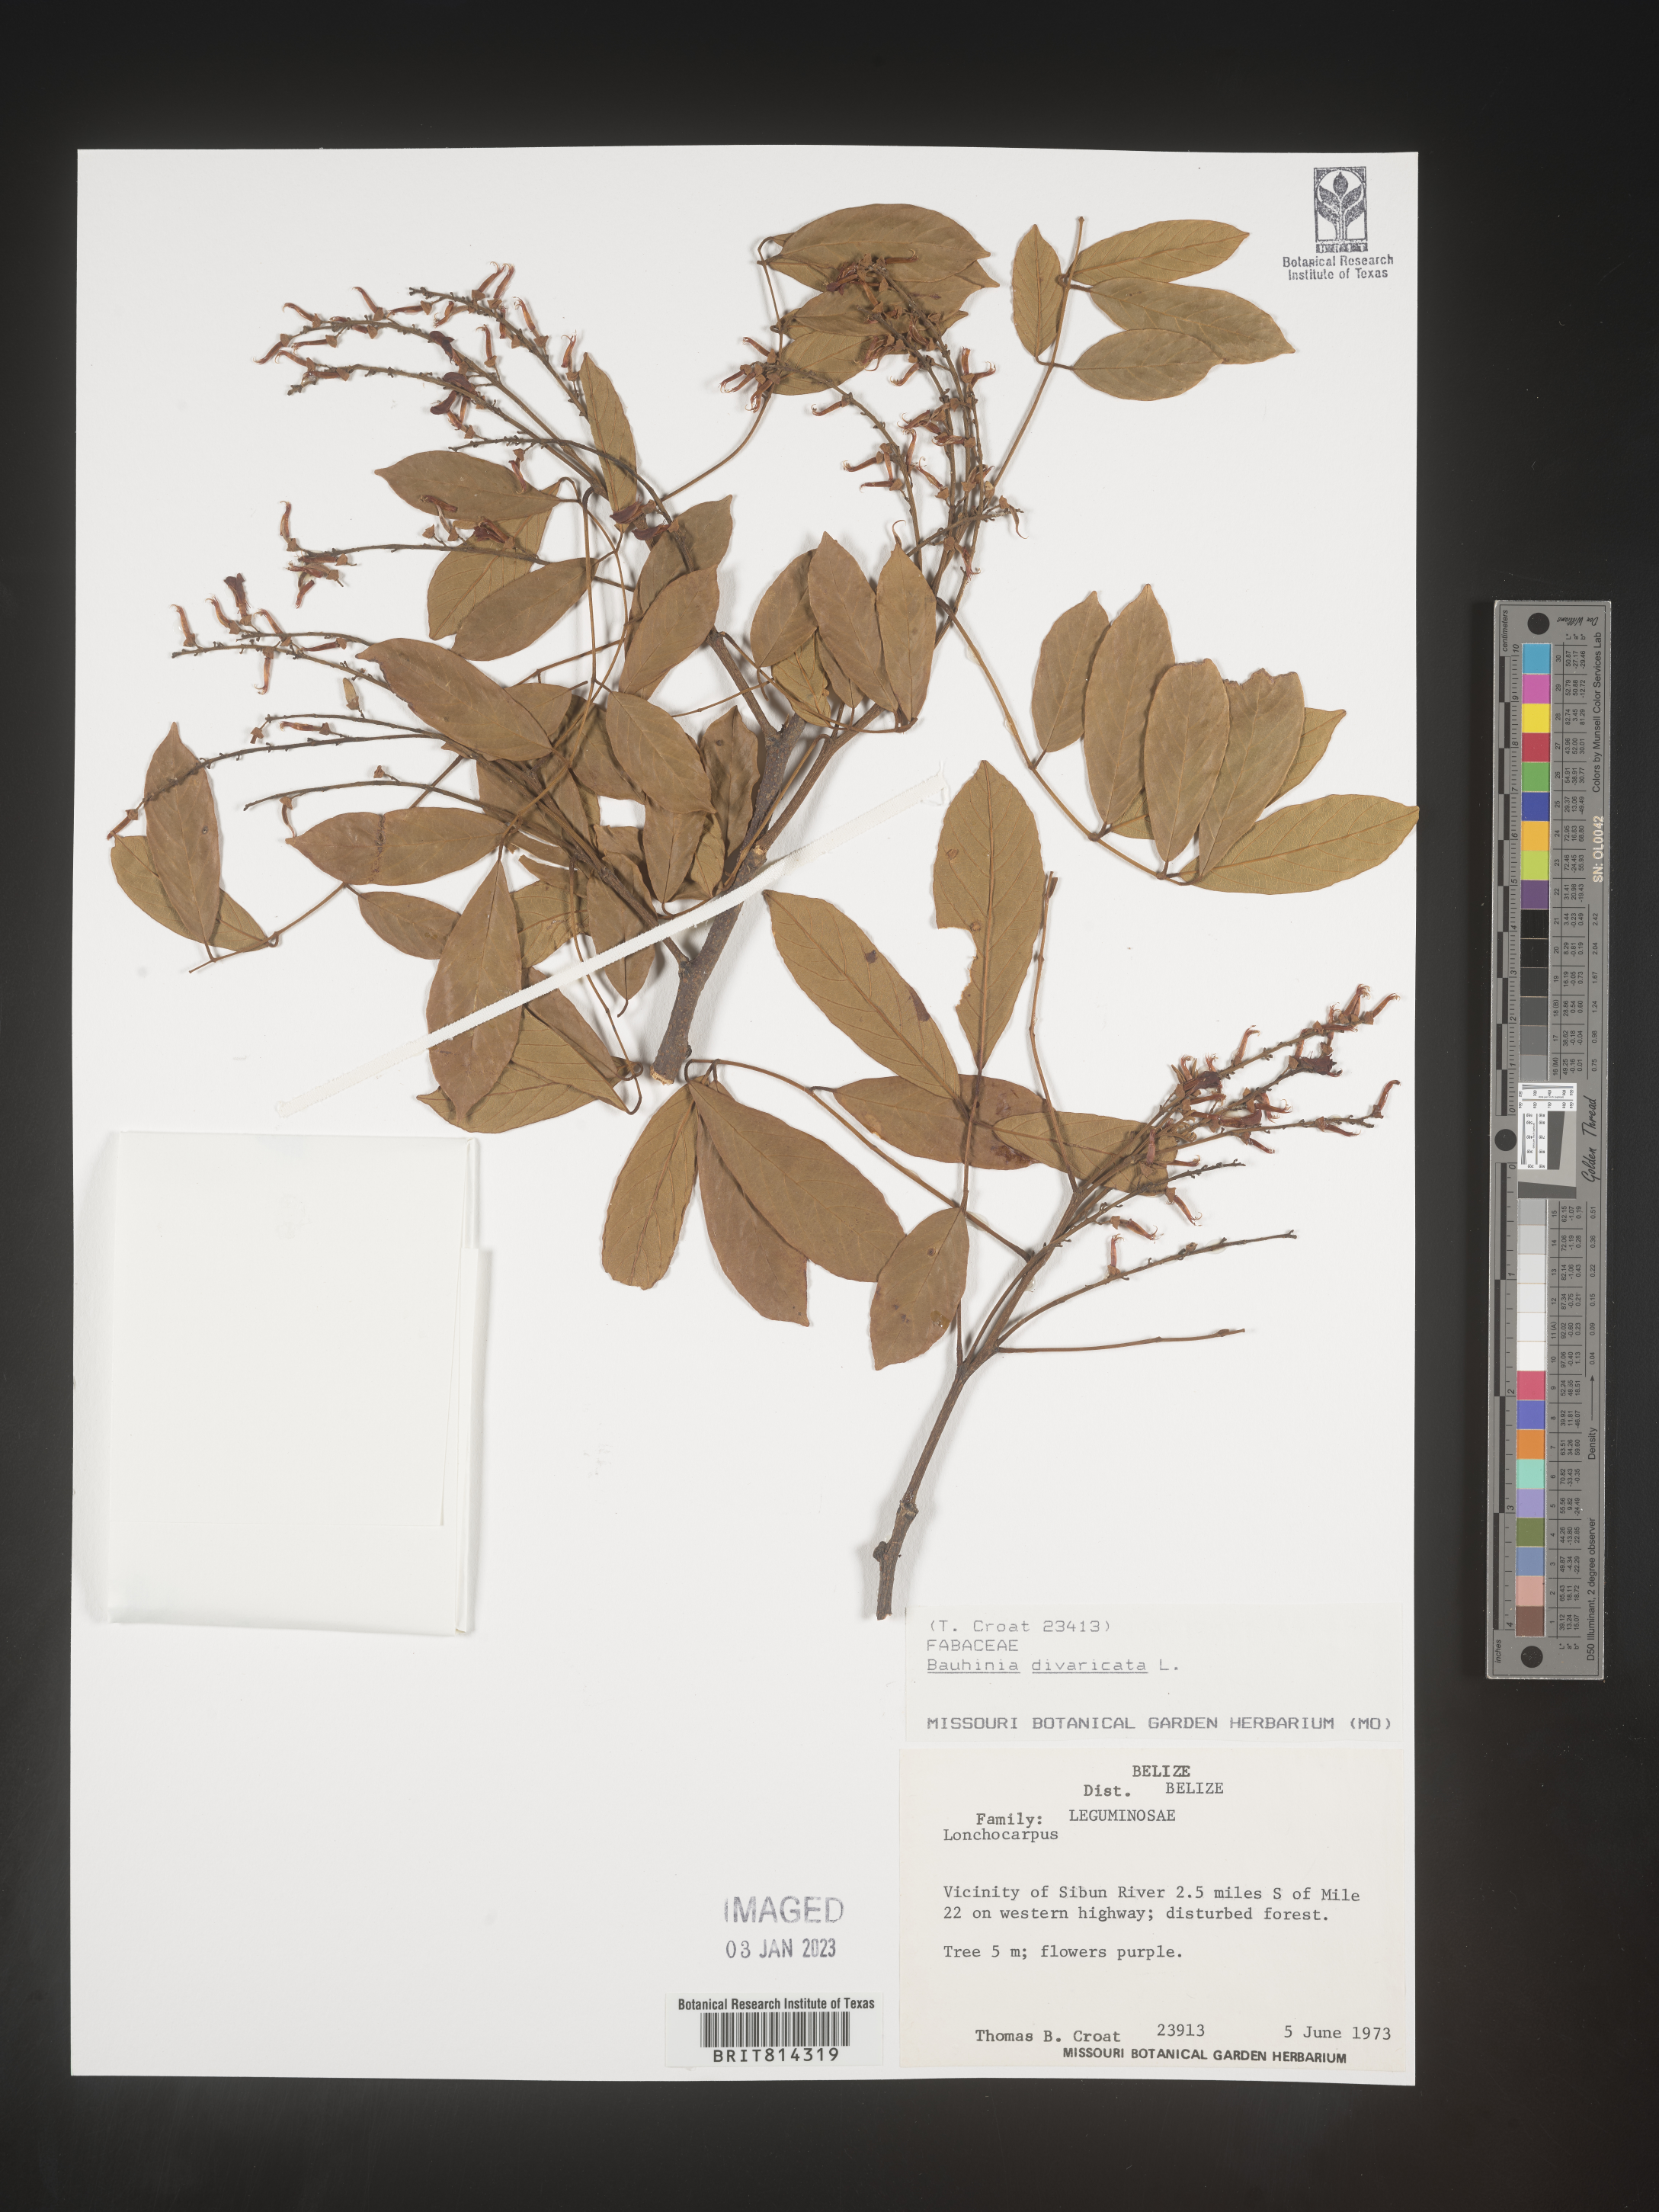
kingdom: Plantae
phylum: Tracheophyta
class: Magnoliopsida
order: Fabales
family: Fabaceae
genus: Bauhinia
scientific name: Bauhinia
